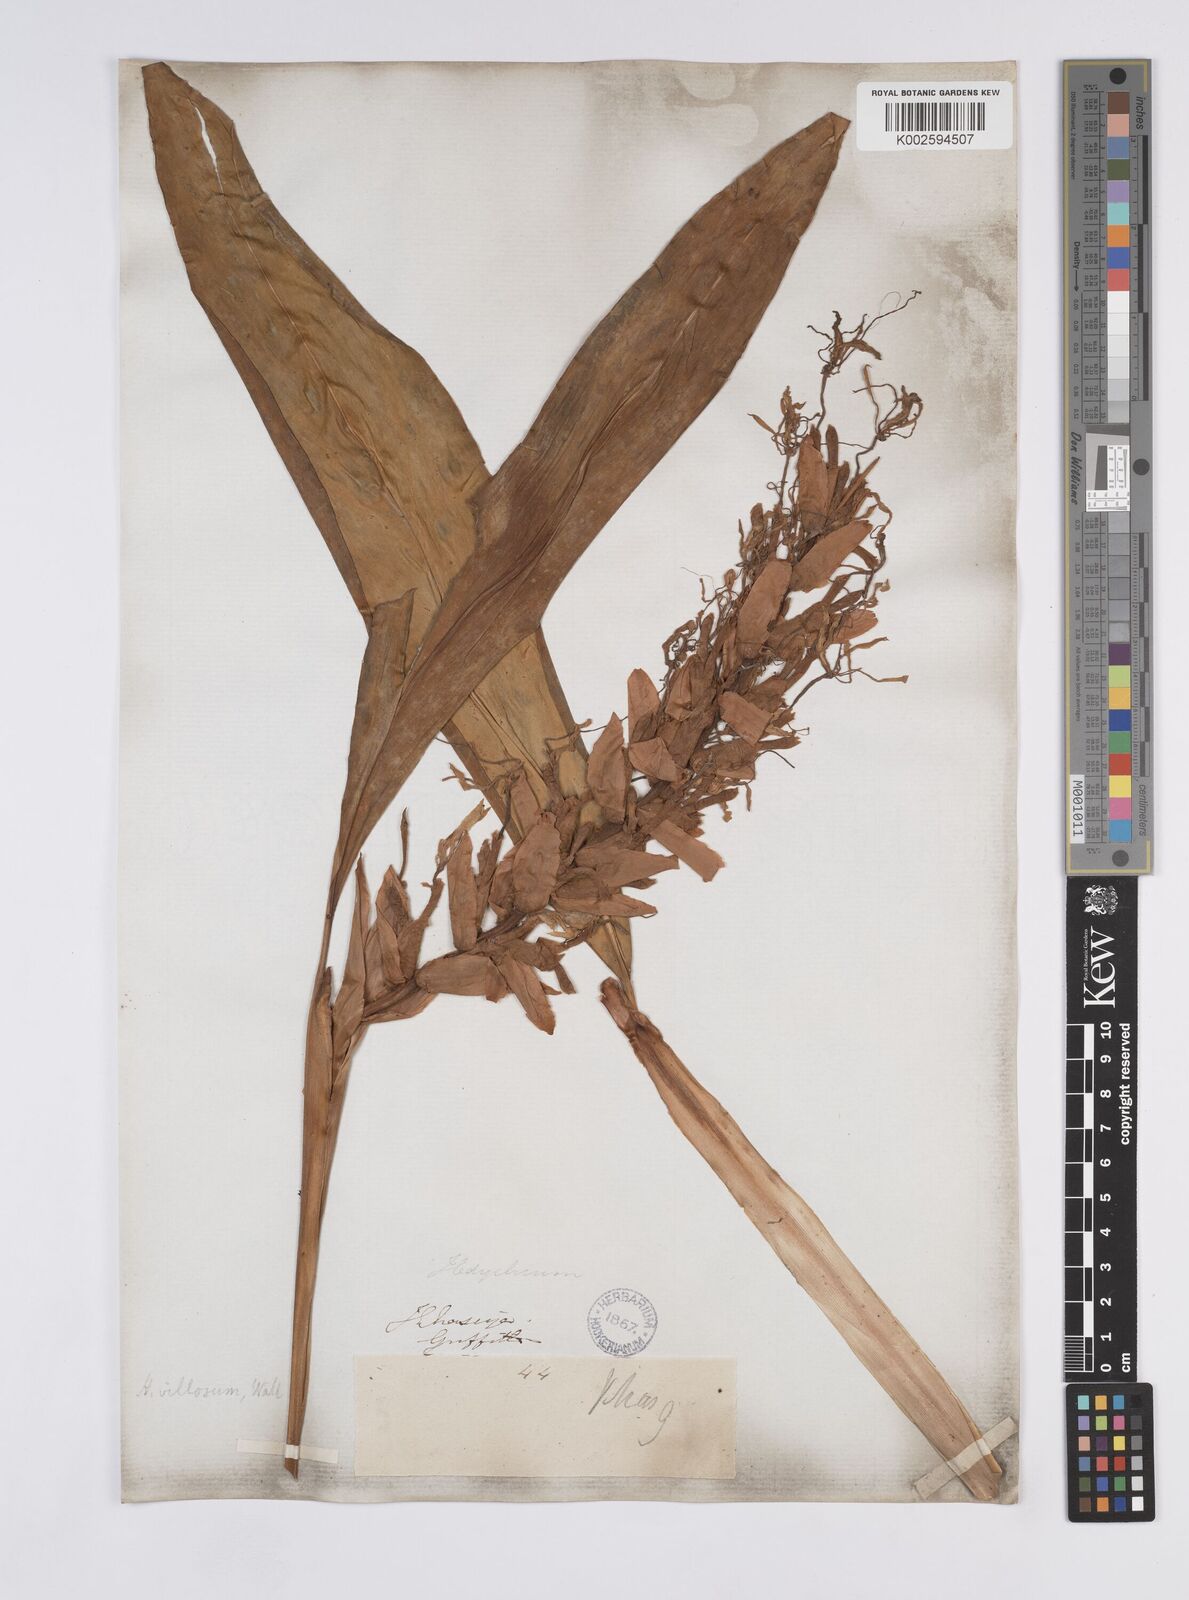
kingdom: Plantae
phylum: Tracheophyta
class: Liliopsida
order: Zingiberales
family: Zingiberaceae
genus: Hedychium
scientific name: Hedychium villosum
